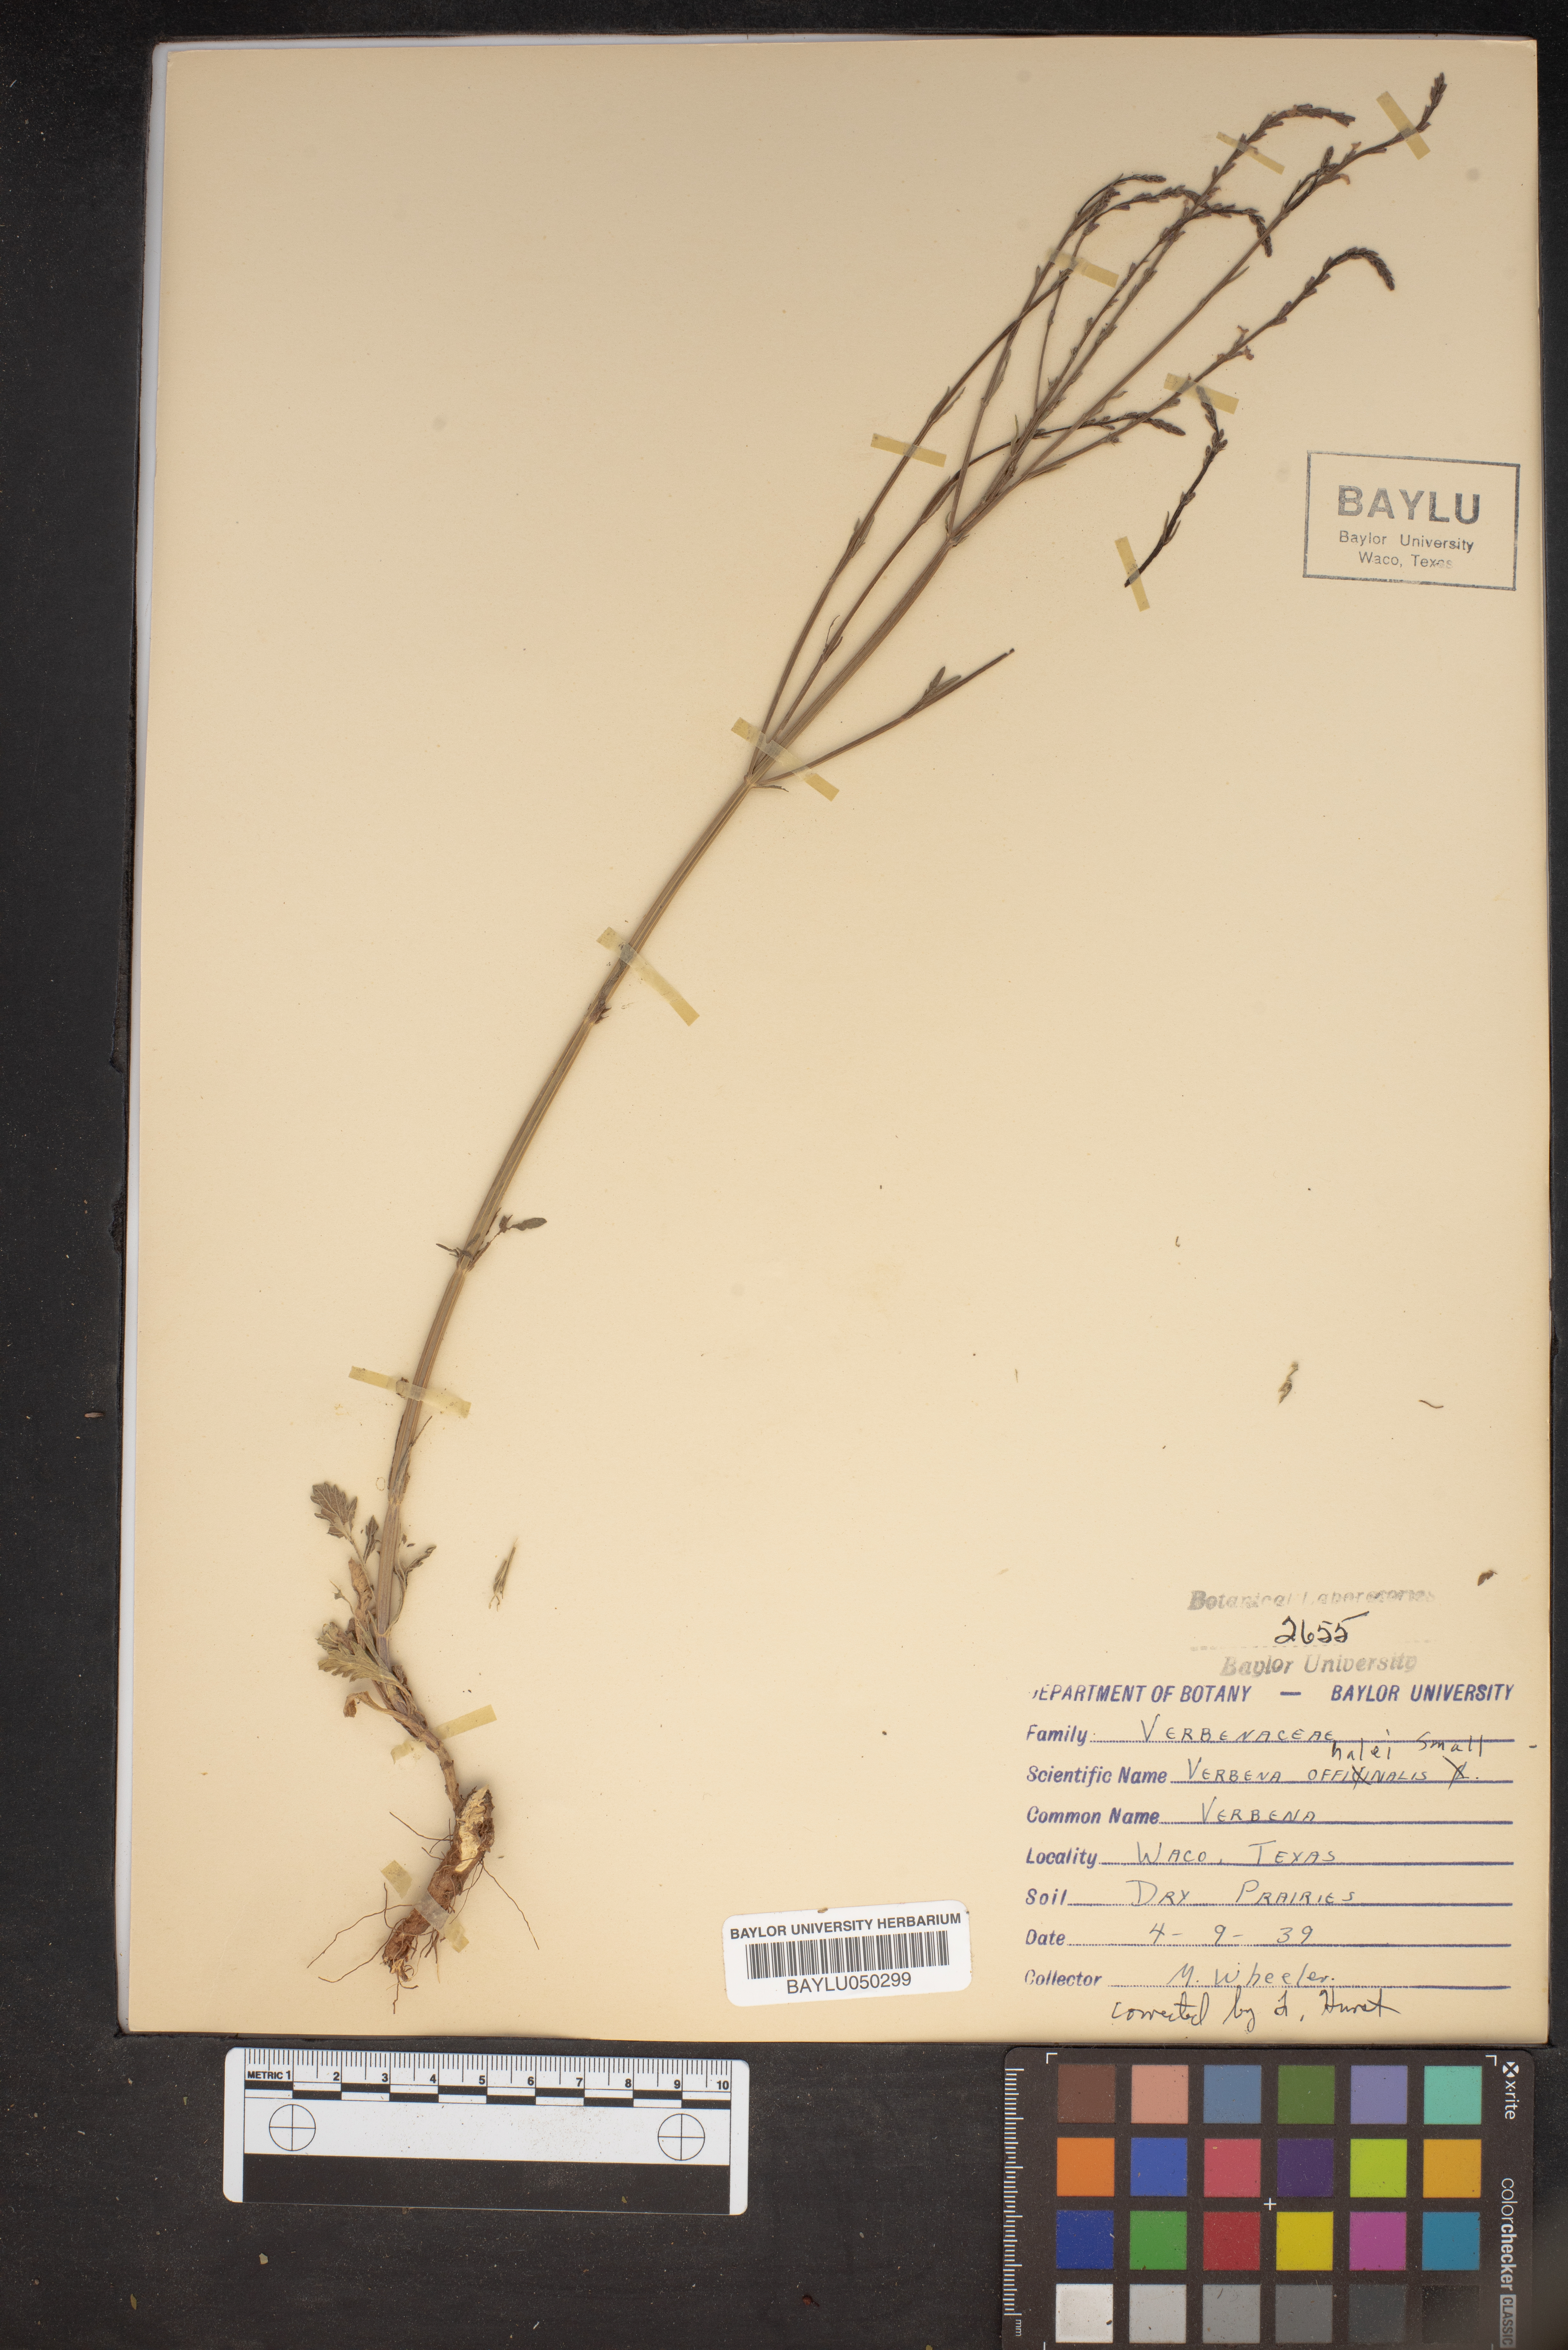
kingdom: Plantae
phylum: Tracheophyta
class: Magnoliopsida
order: Lamiales
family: Verbenaceae
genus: Verbena
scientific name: Verbena halei
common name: Texas vervain
